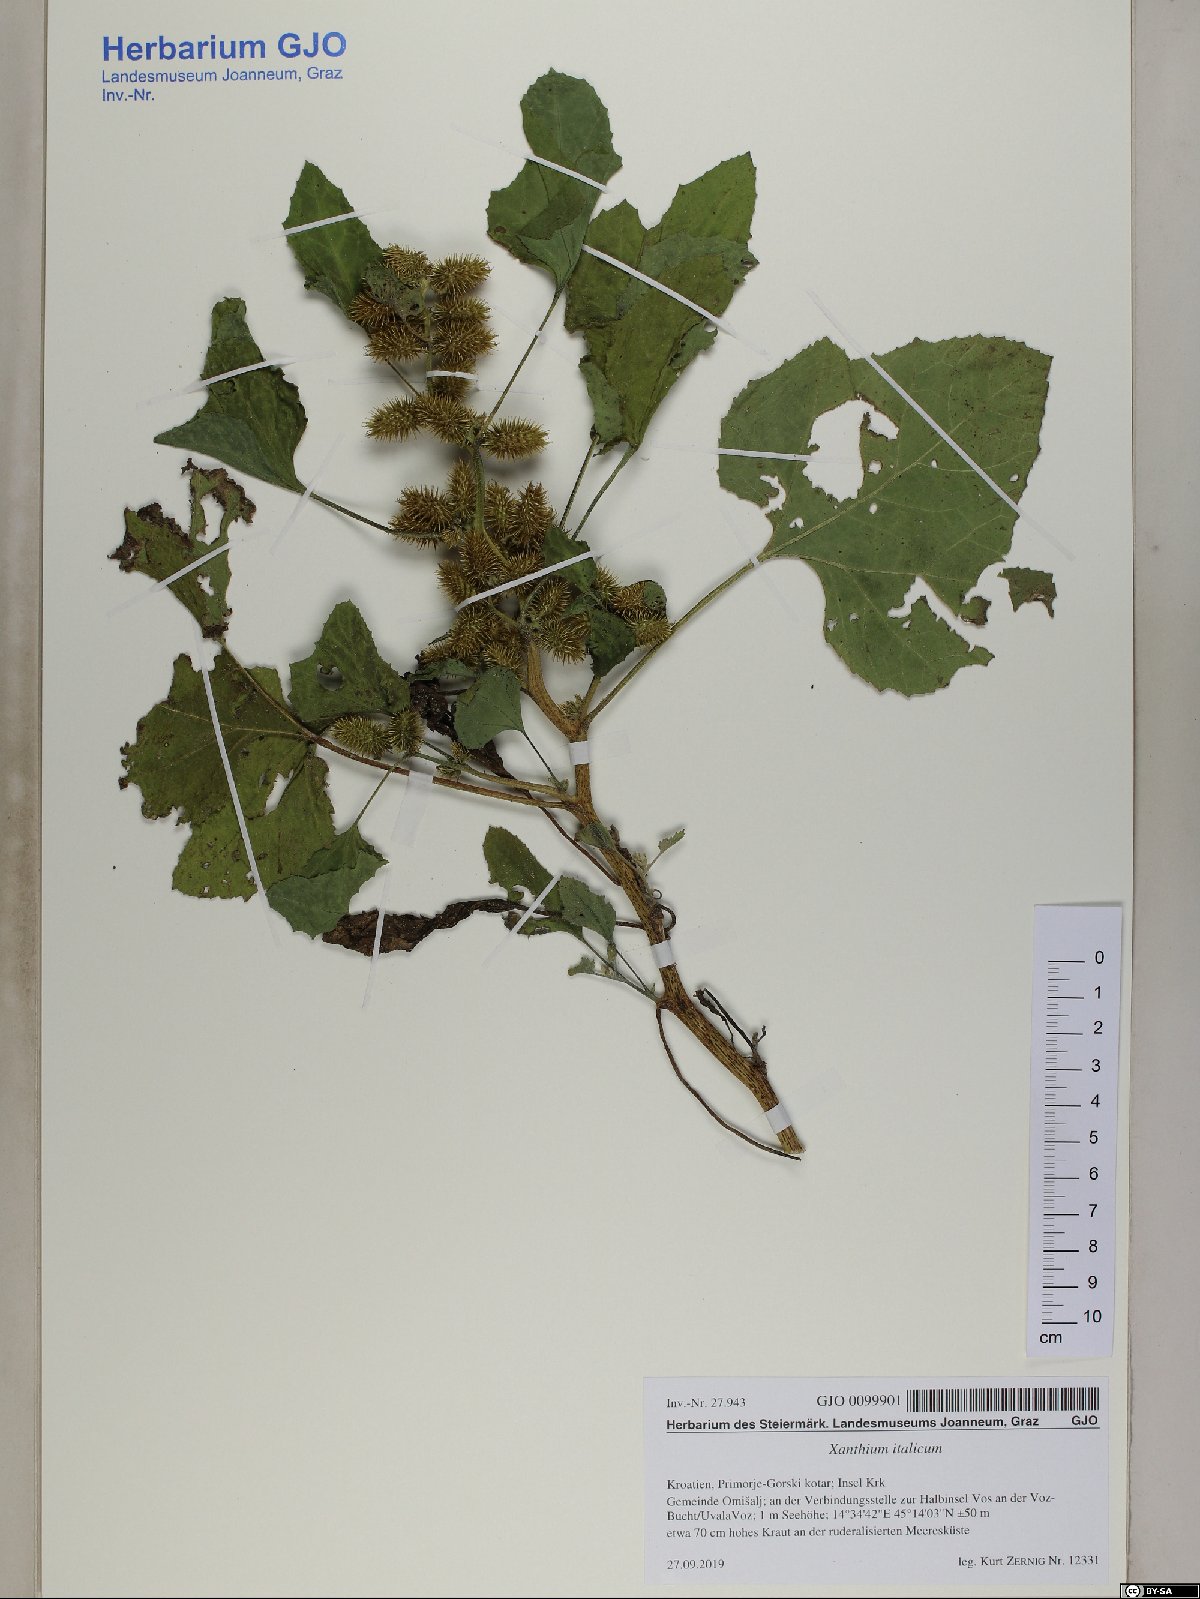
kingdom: Plantae
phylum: Tracheophyta
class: Magnoliopsida
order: Asterales
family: Asteraceae
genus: Xanthium
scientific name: Xanthium orientale
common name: Californian burr
